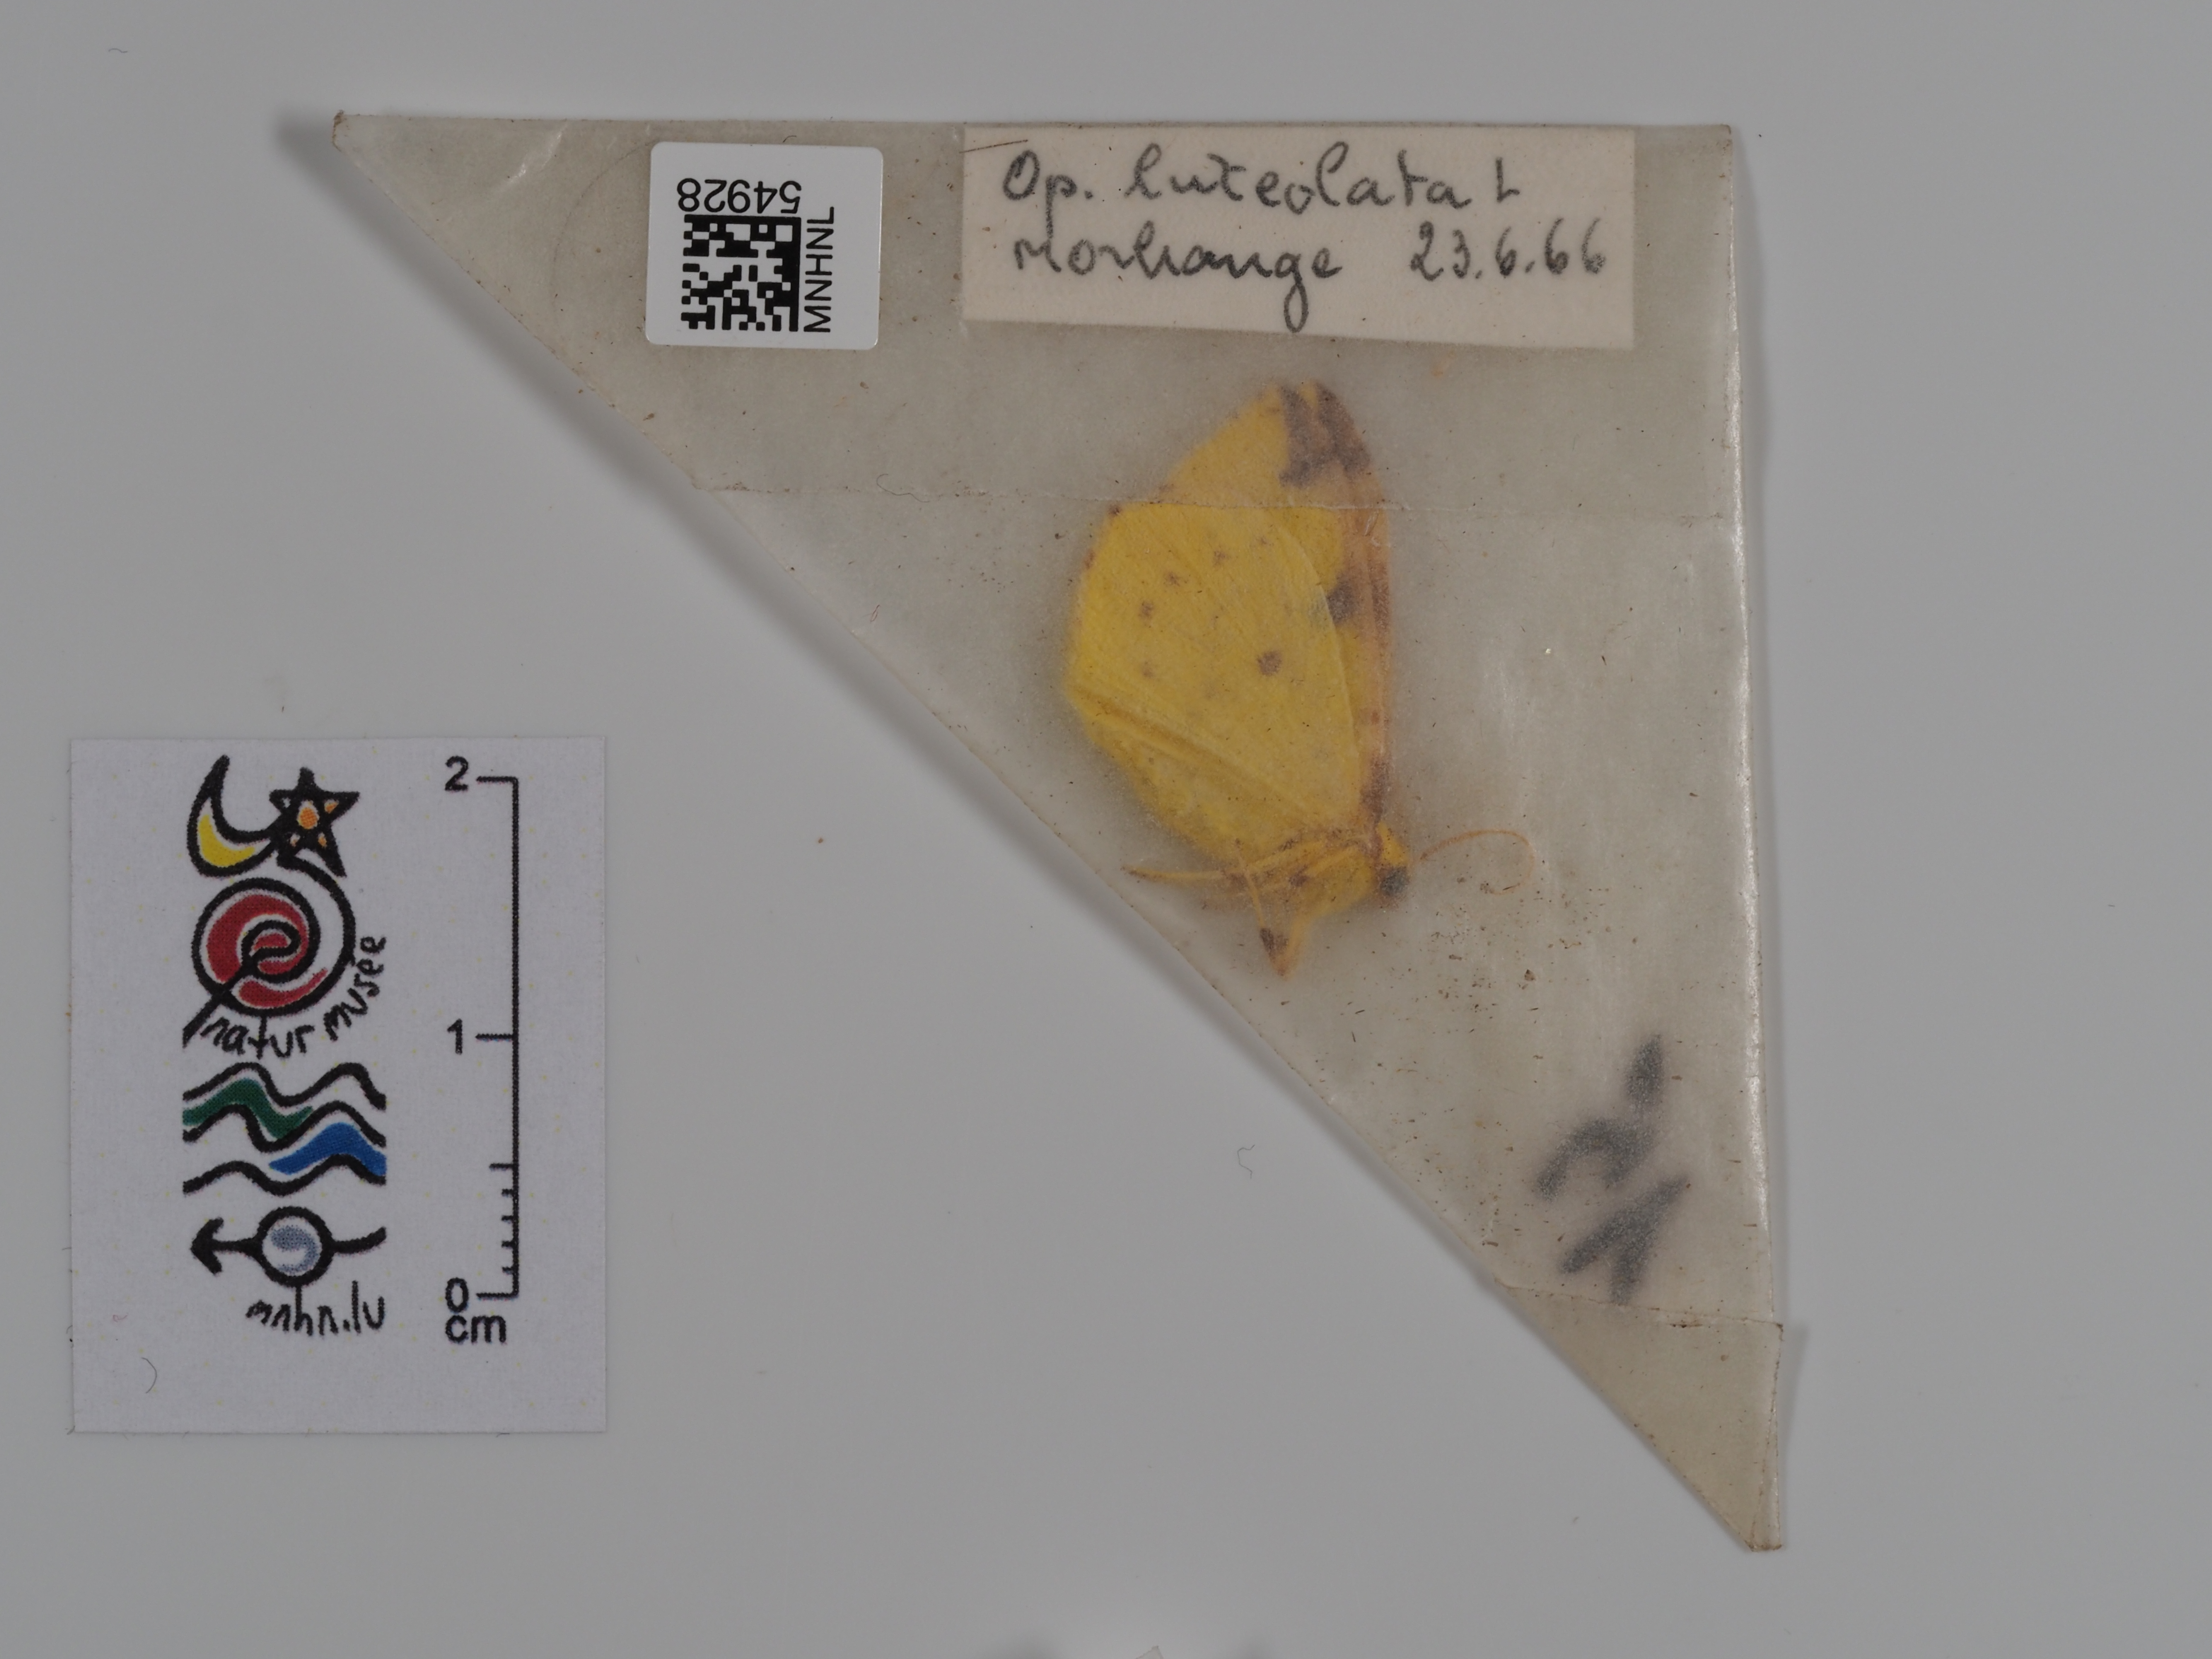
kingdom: Animalia
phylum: Arthropoda
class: Insecta
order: Lepidoptera
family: Geometridae
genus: Opisthograptis
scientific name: Opisthograptis luteolata
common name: Brimstone moth
